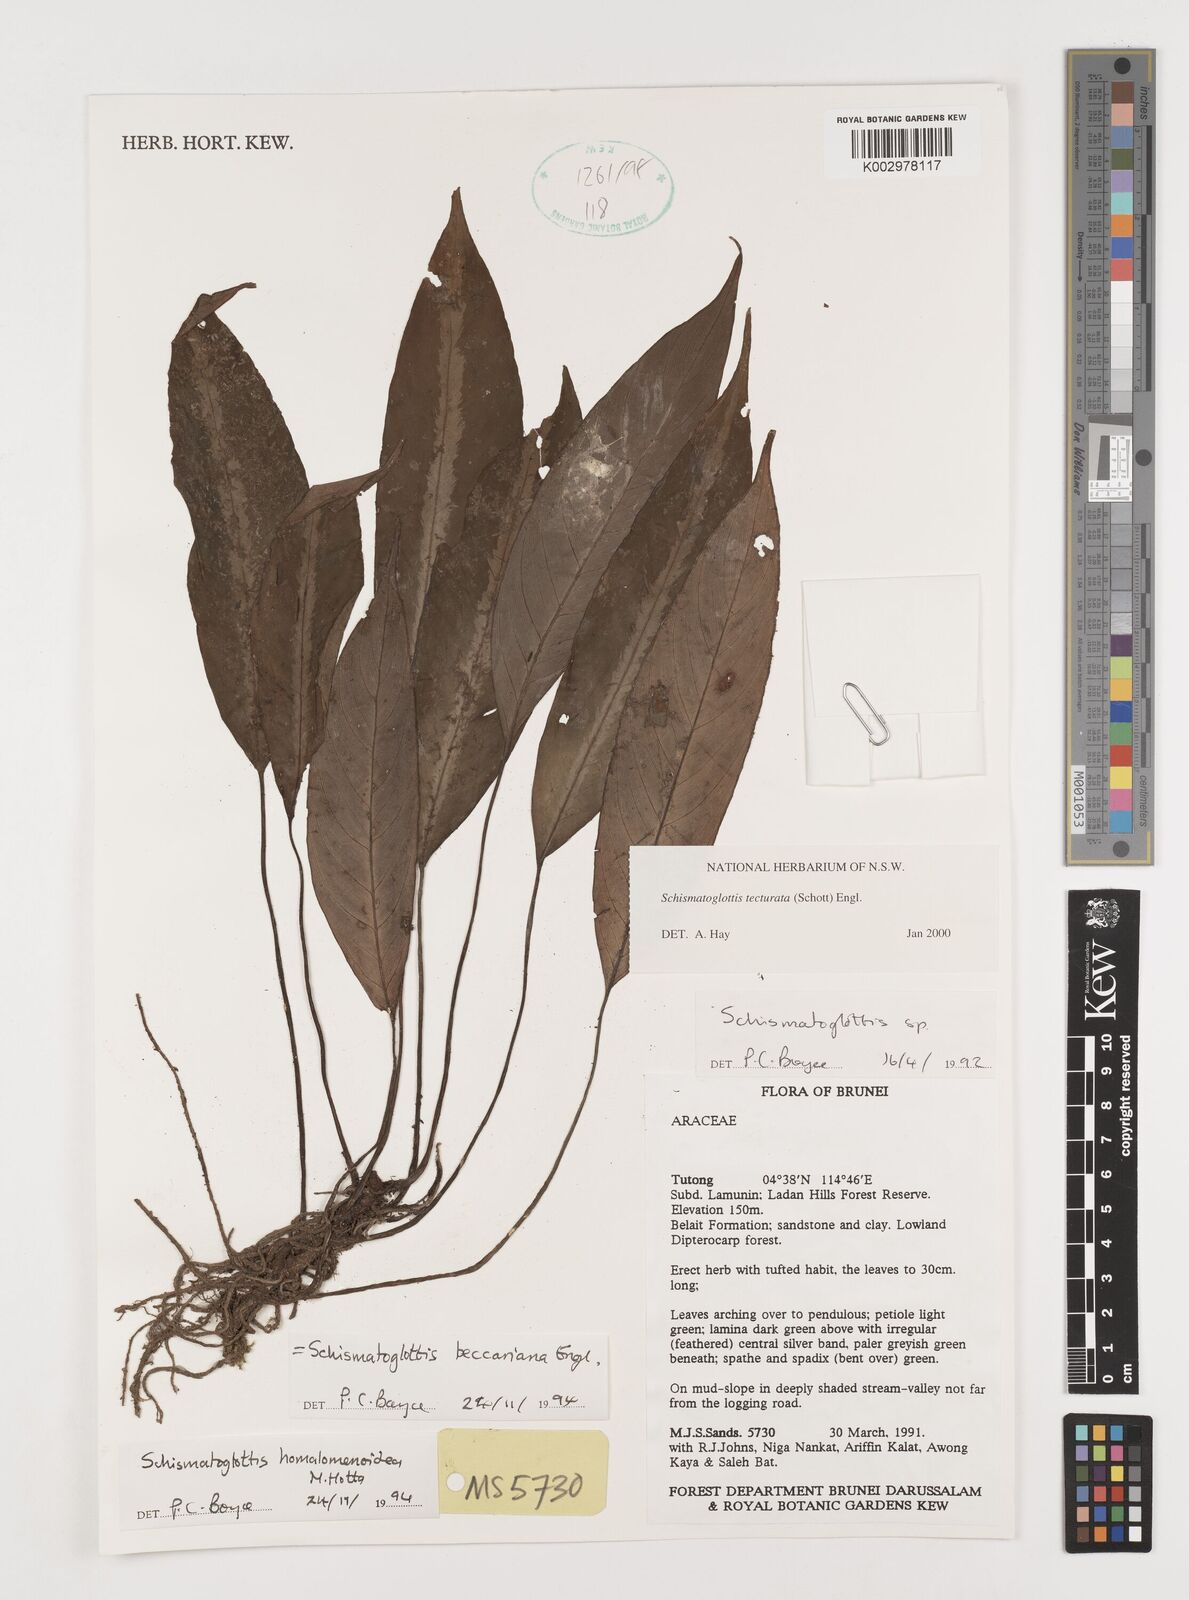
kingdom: Plantae
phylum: Tracheophyta
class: Liliopsida
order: Zingiberales
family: Costaceae
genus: Colobogynium
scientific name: Colobogynium variegatum
